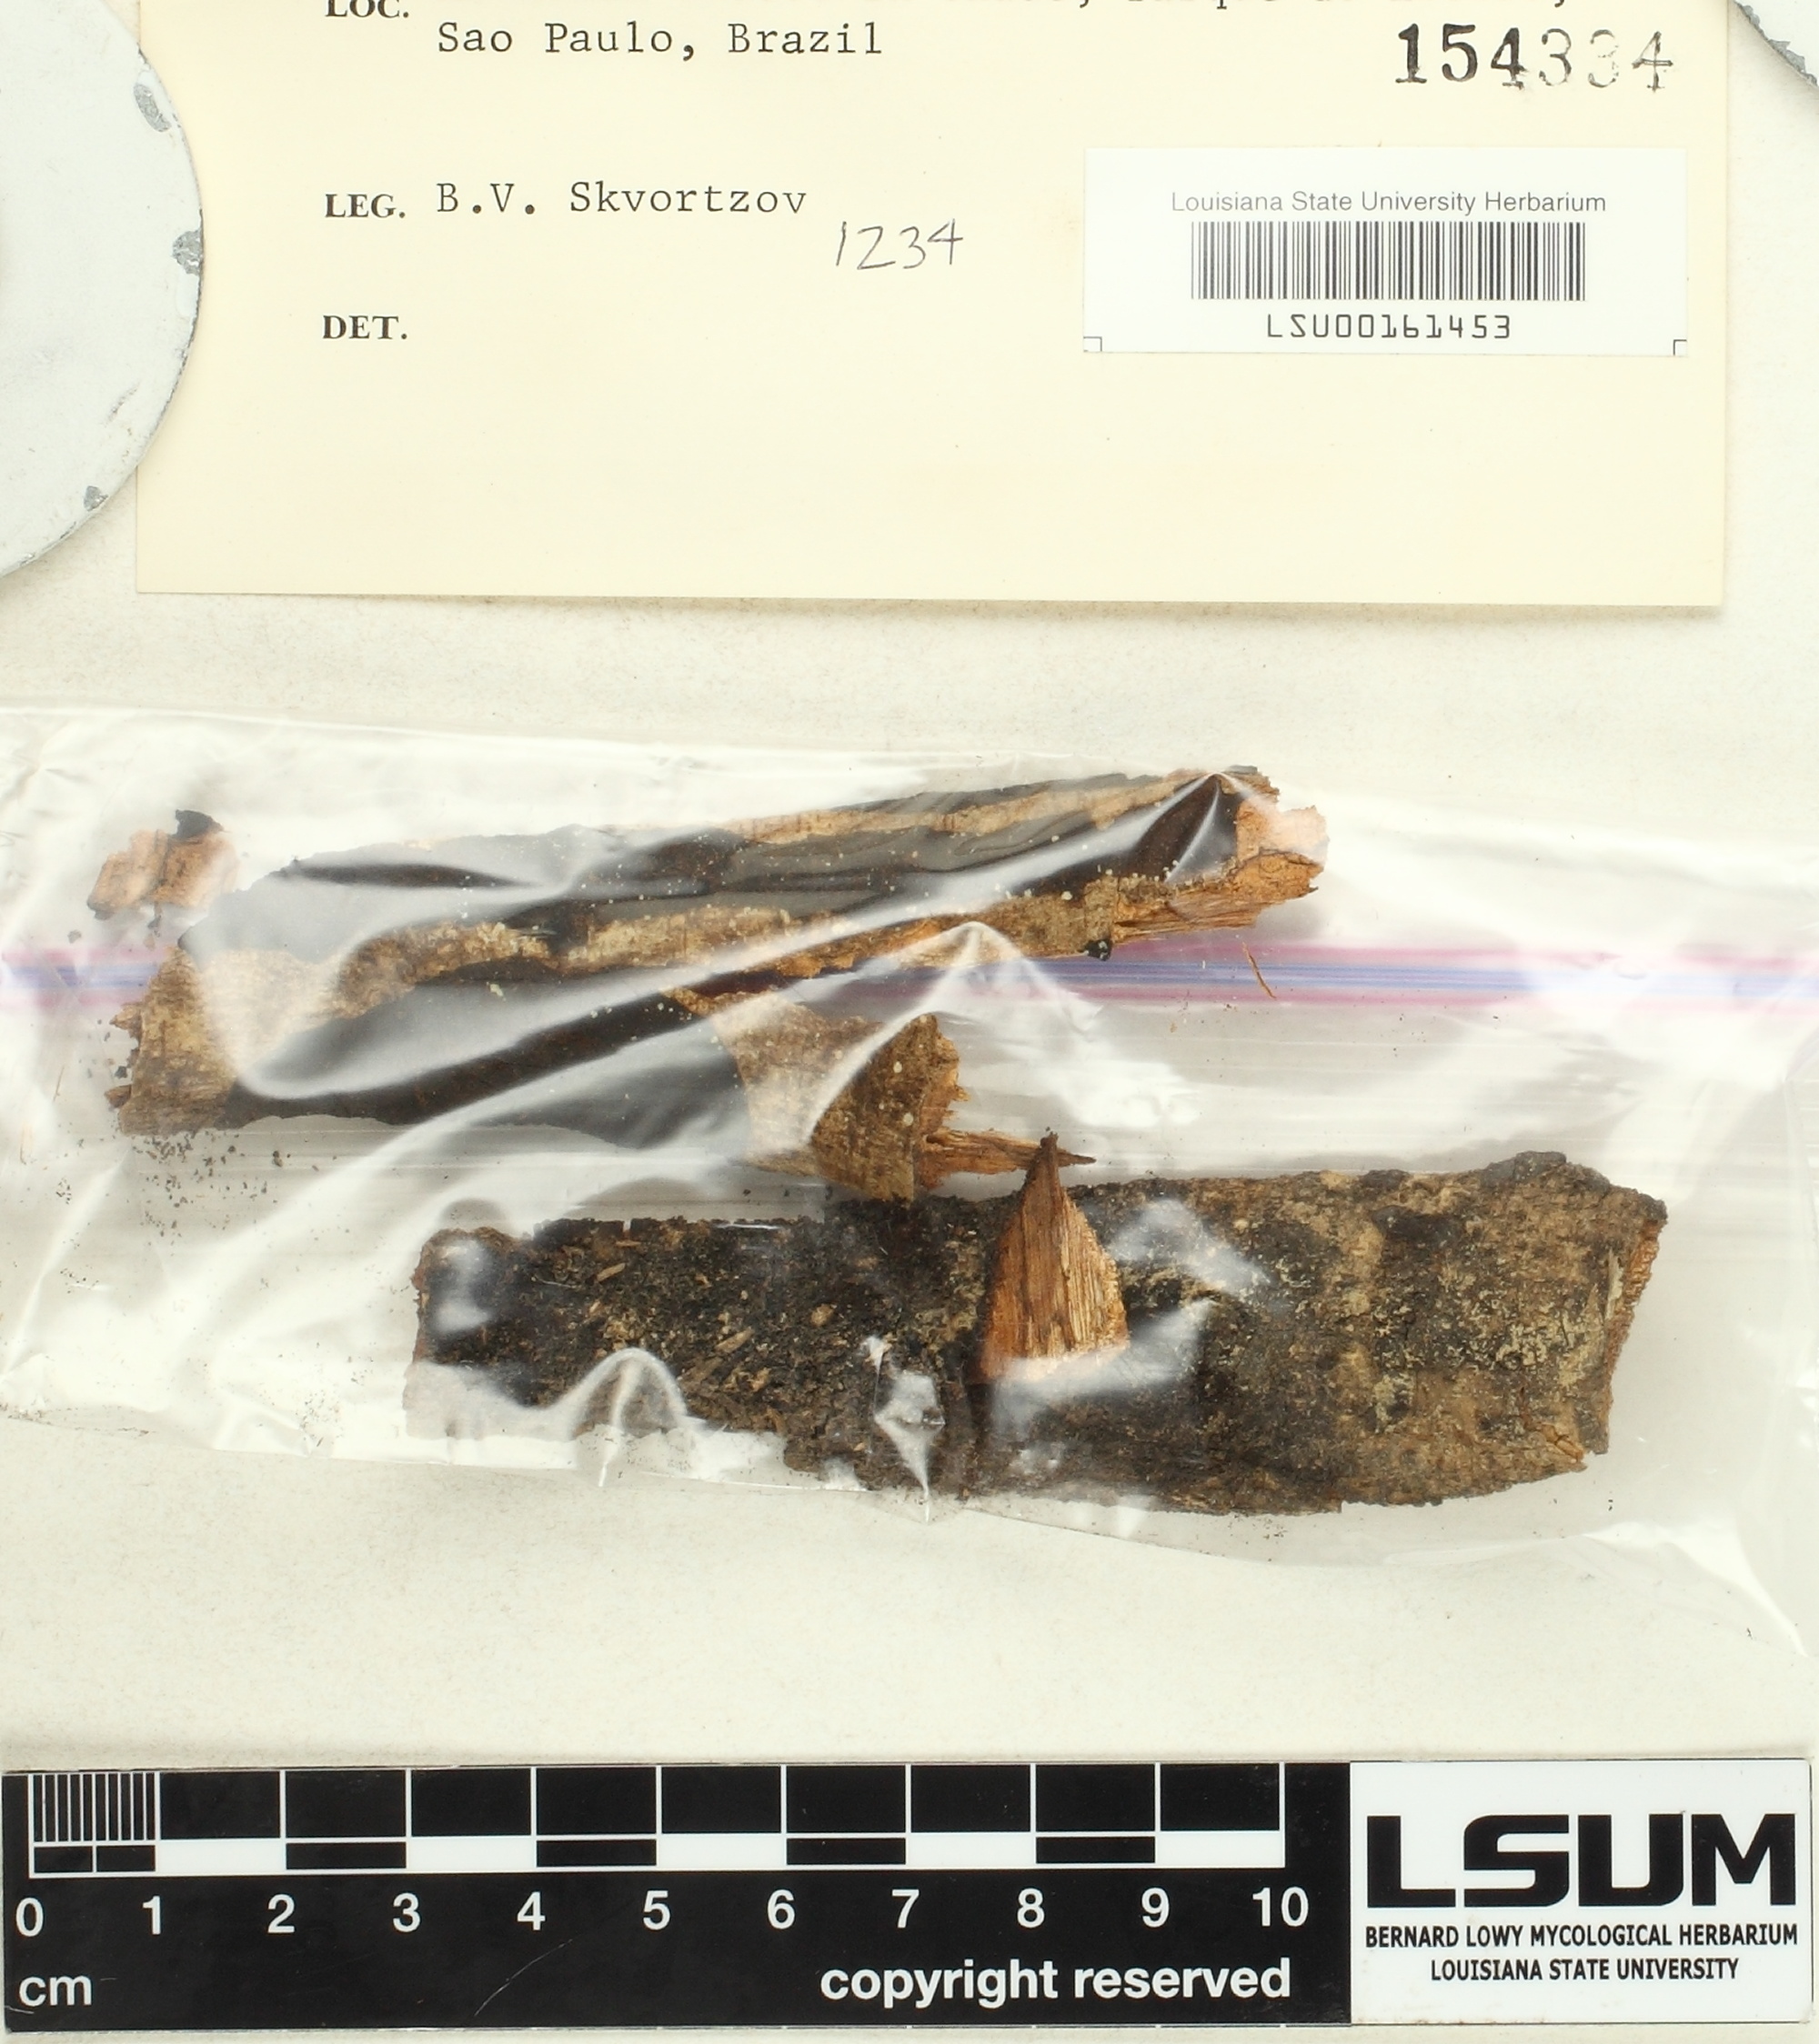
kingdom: Fungi
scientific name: Fungi
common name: Fungi
